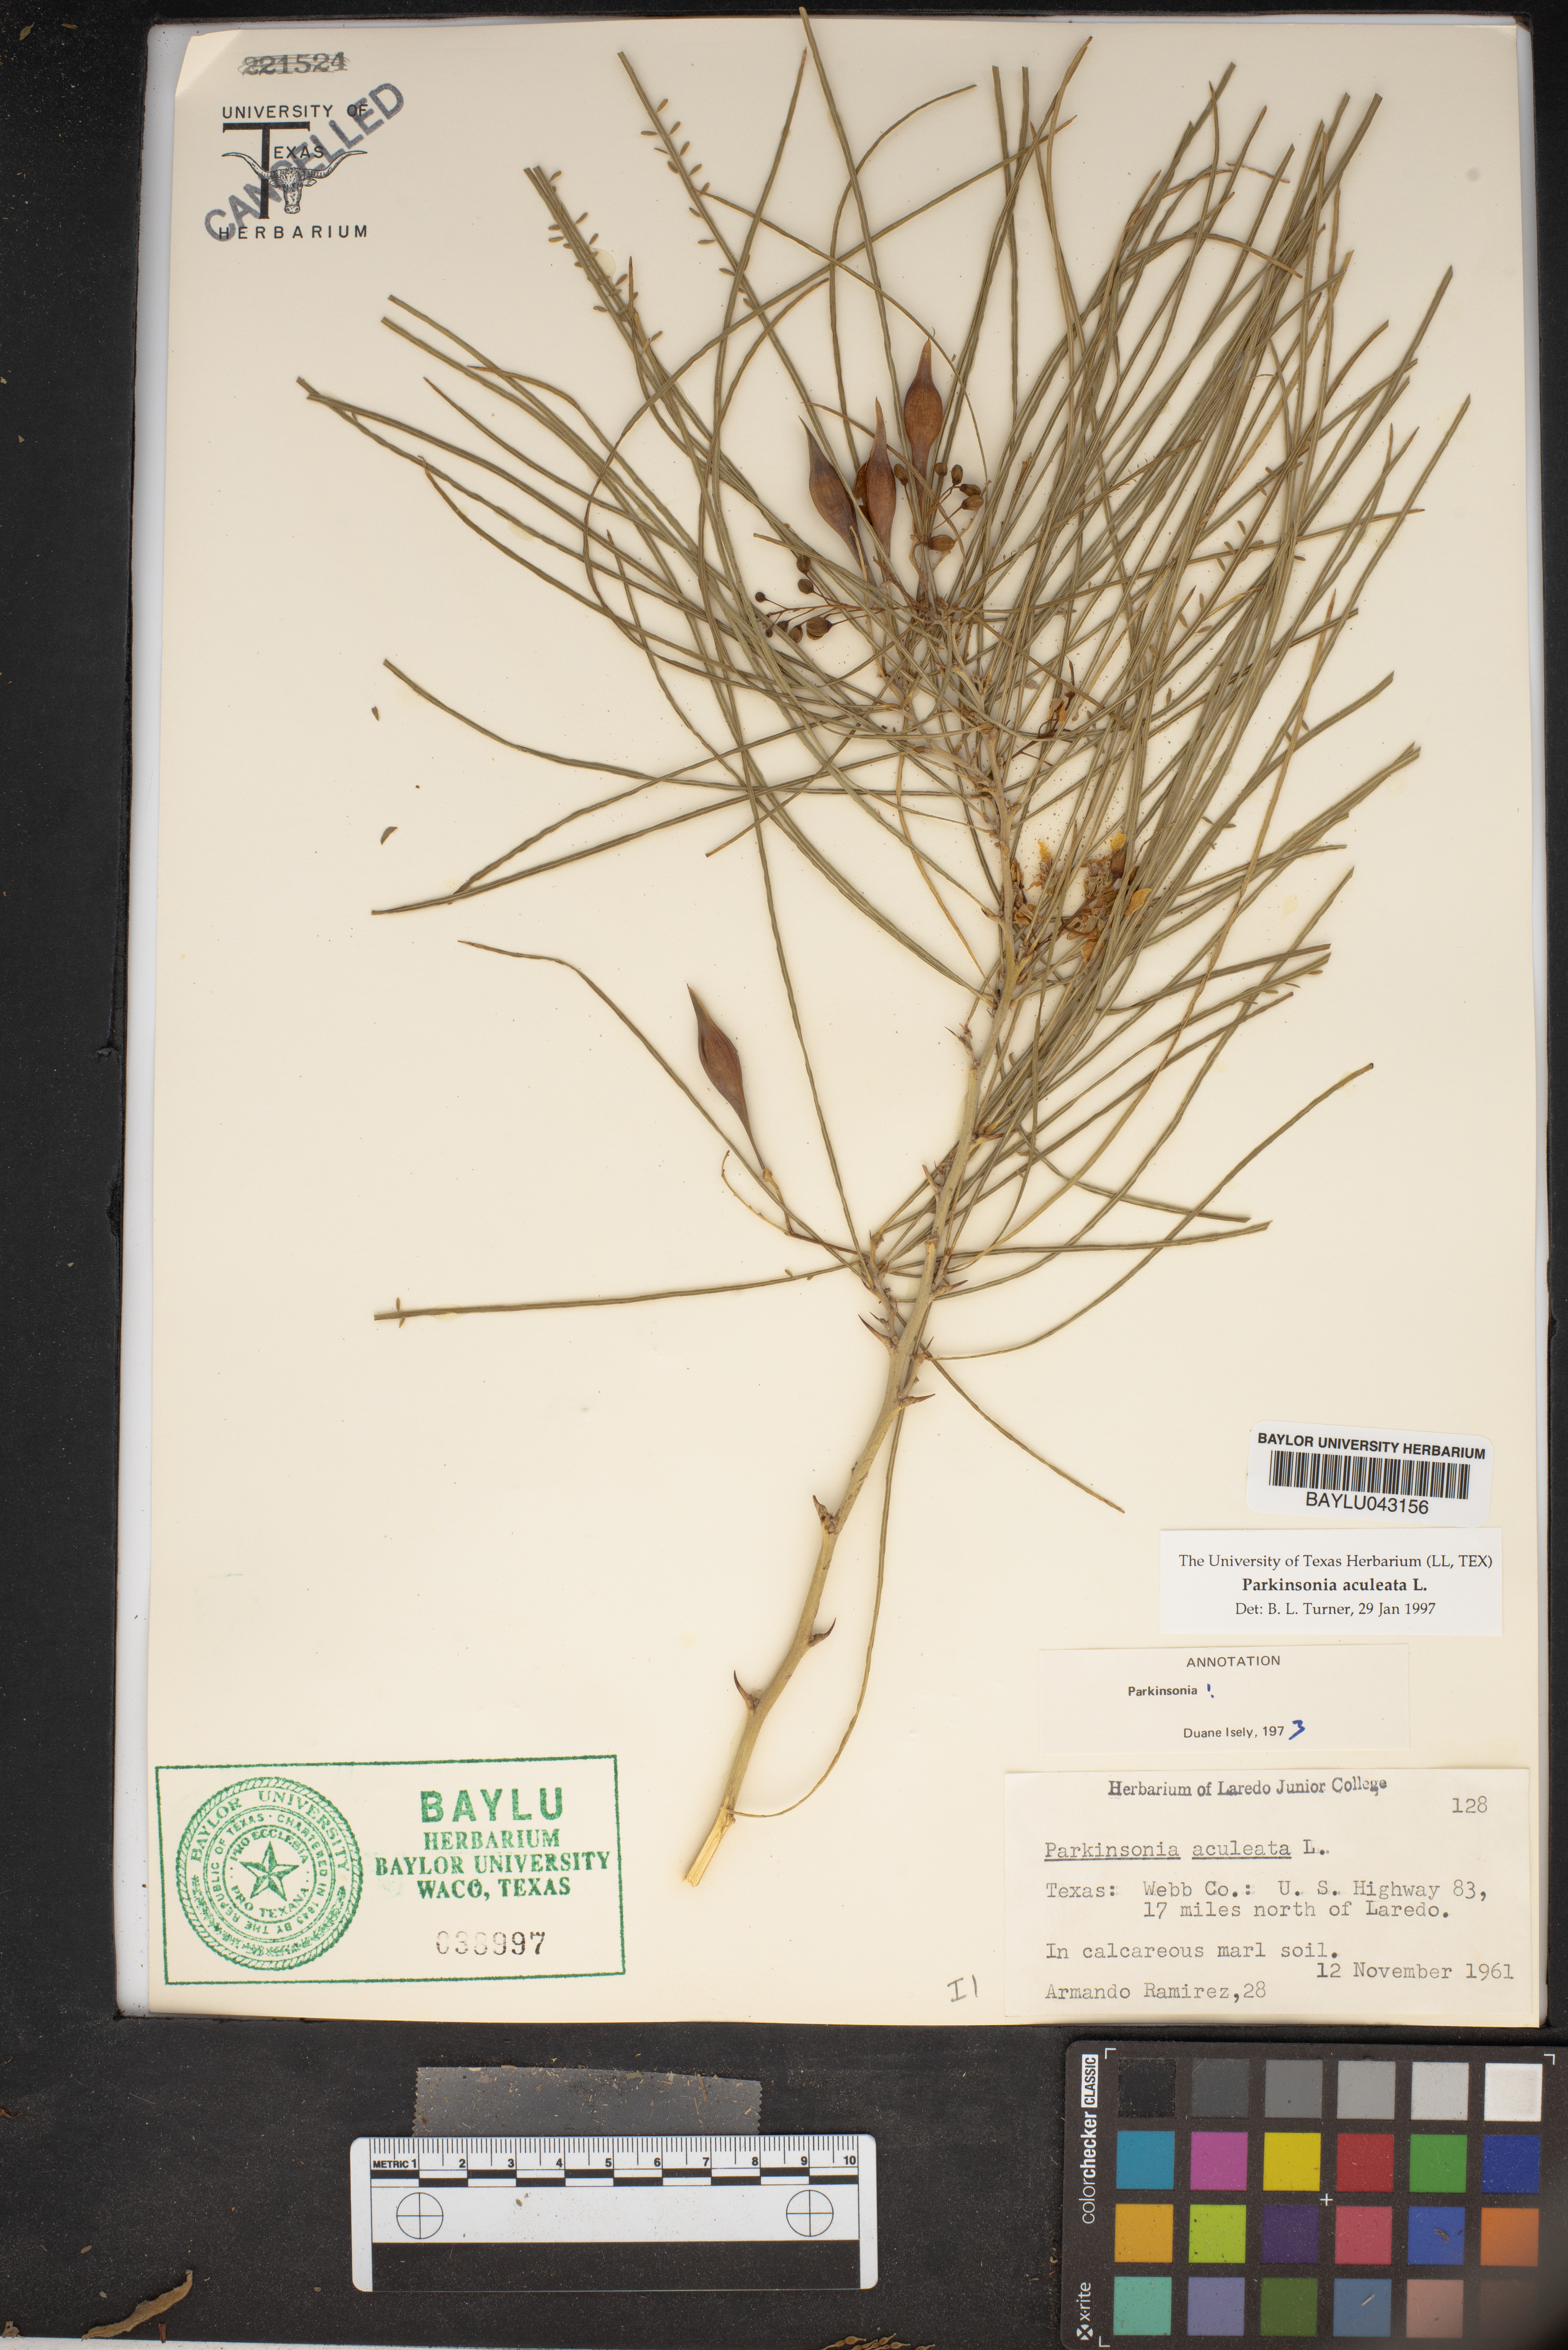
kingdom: Plantae
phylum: Tracheophyta
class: Magnoliopsida
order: Fabales
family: Fabaceae
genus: Parkinsonia
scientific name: Parkinsonia aculeata
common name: Jerusalem thorn
